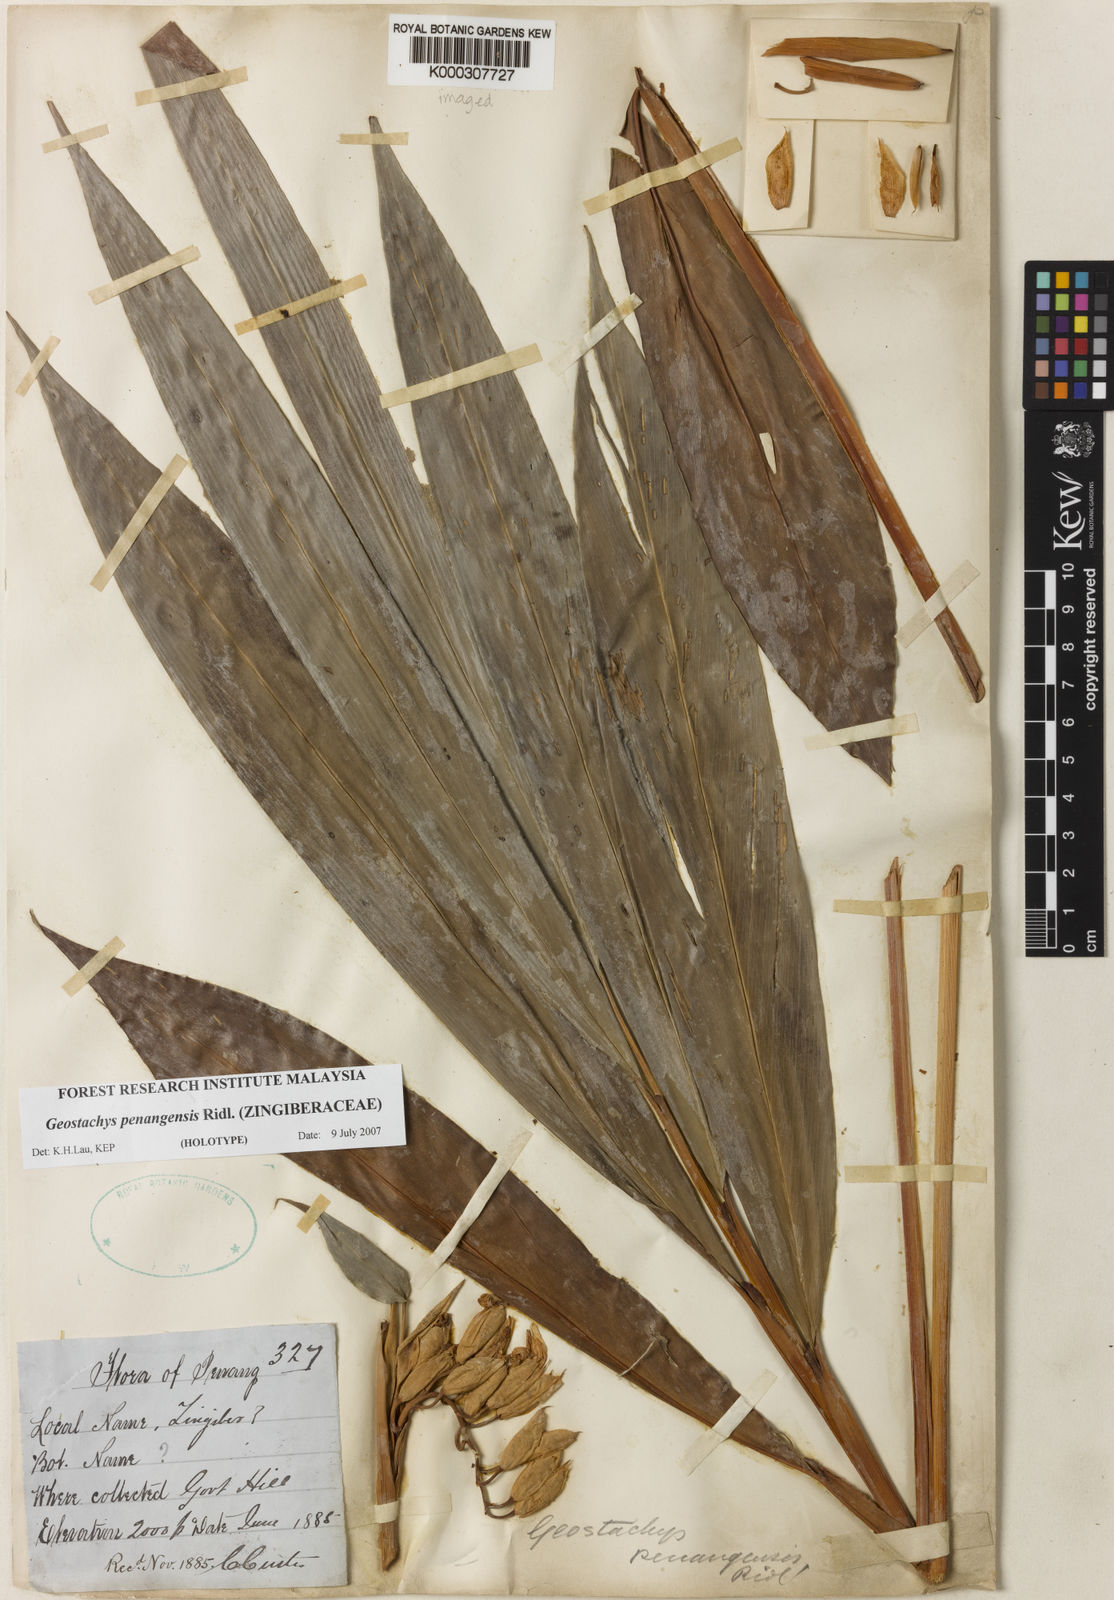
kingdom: Plantae
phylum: Tracheophyta
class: Liliopsida
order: Zingiberales
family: Zingiberaceae
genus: Geostachys
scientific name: Geostachys penangensis
